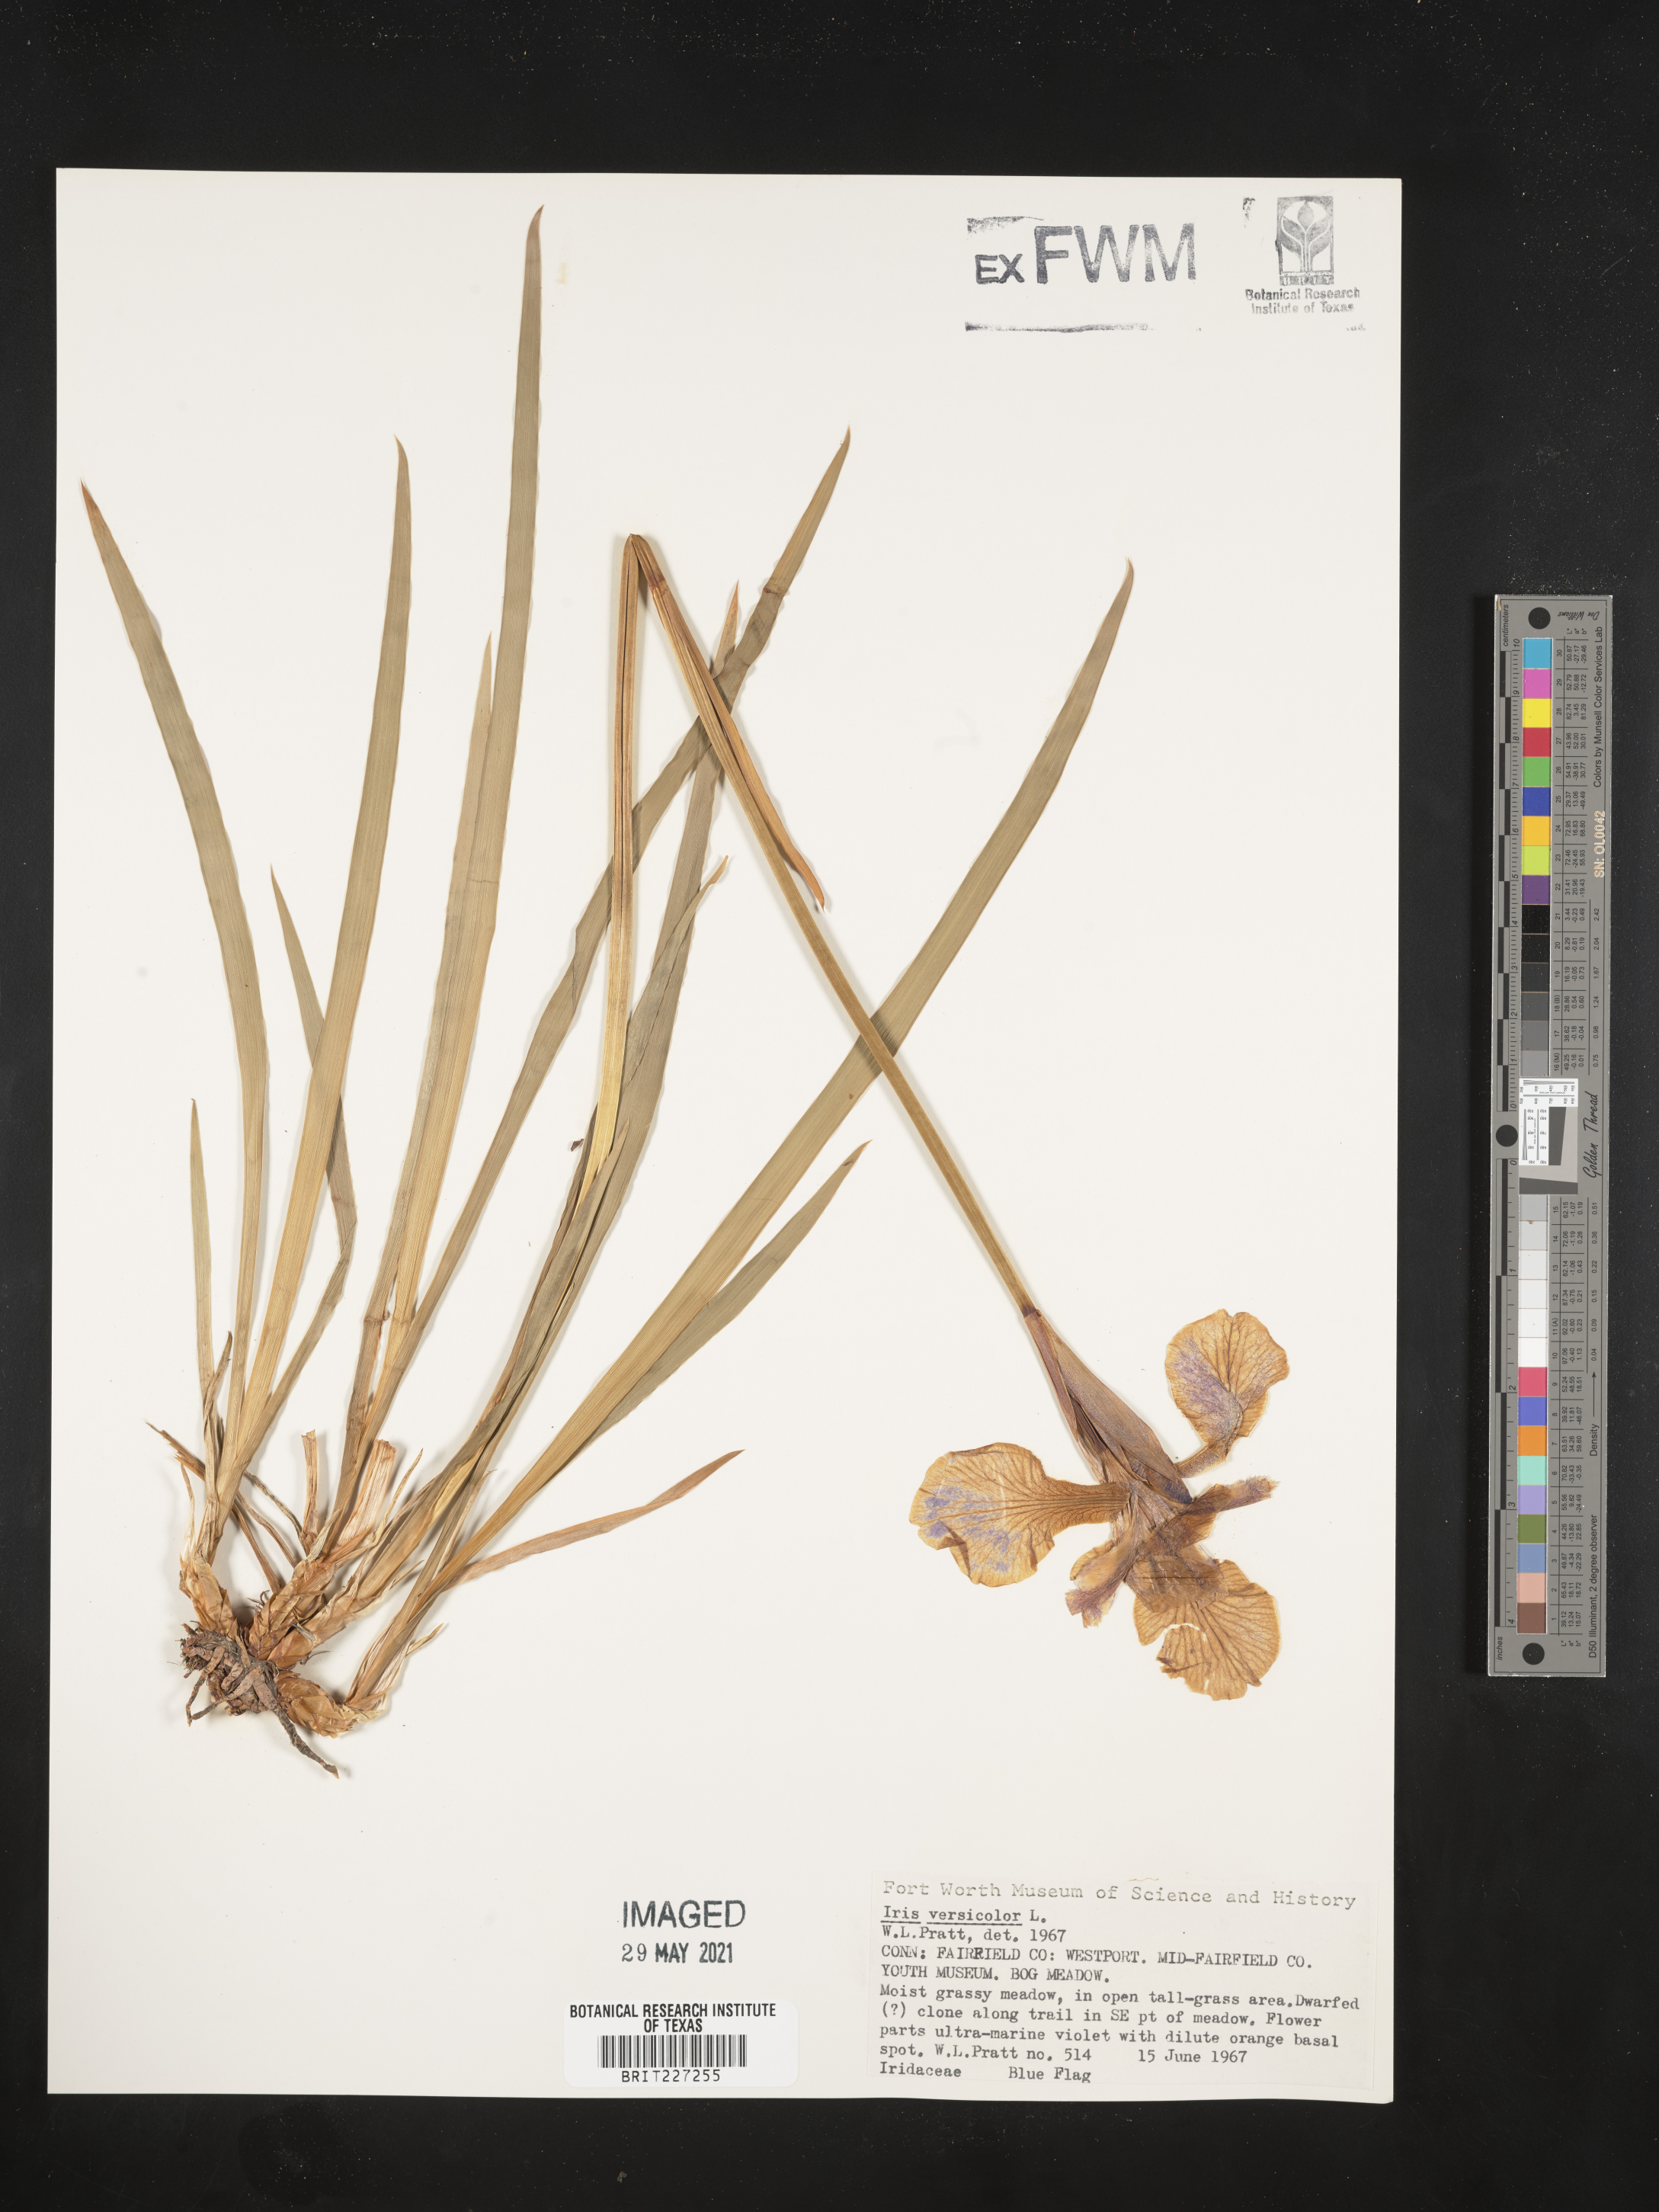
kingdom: Plantae
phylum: Tracheophyta
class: Liliopsida
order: Asparagales
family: Iridaceae
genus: Iris
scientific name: Iris versicolor
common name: Purple iris
